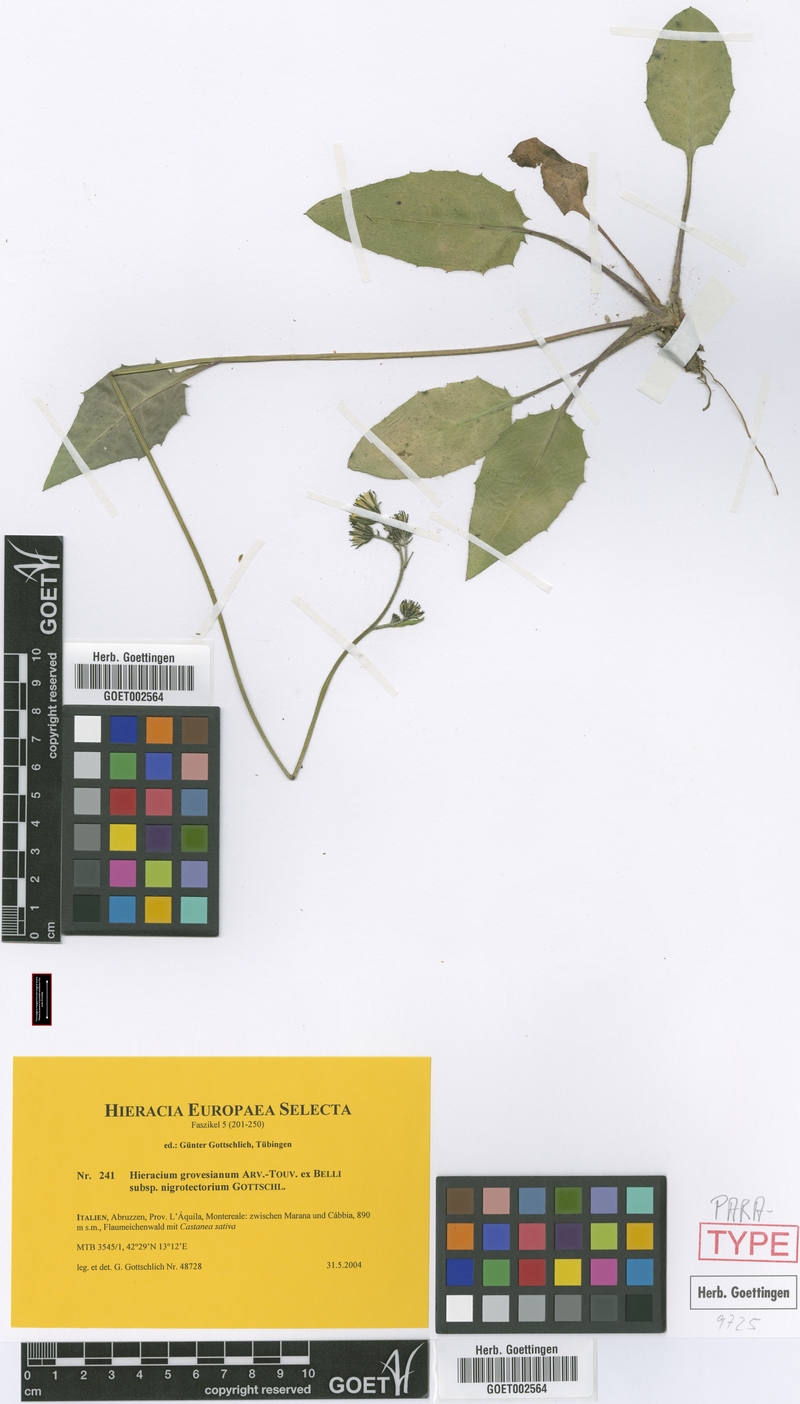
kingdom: Plantae
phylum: Tracheophyta
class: Magnoliopsida
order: Asterales
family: Asteraceae
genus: Hieracium
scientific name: Hieracium grovesianum
